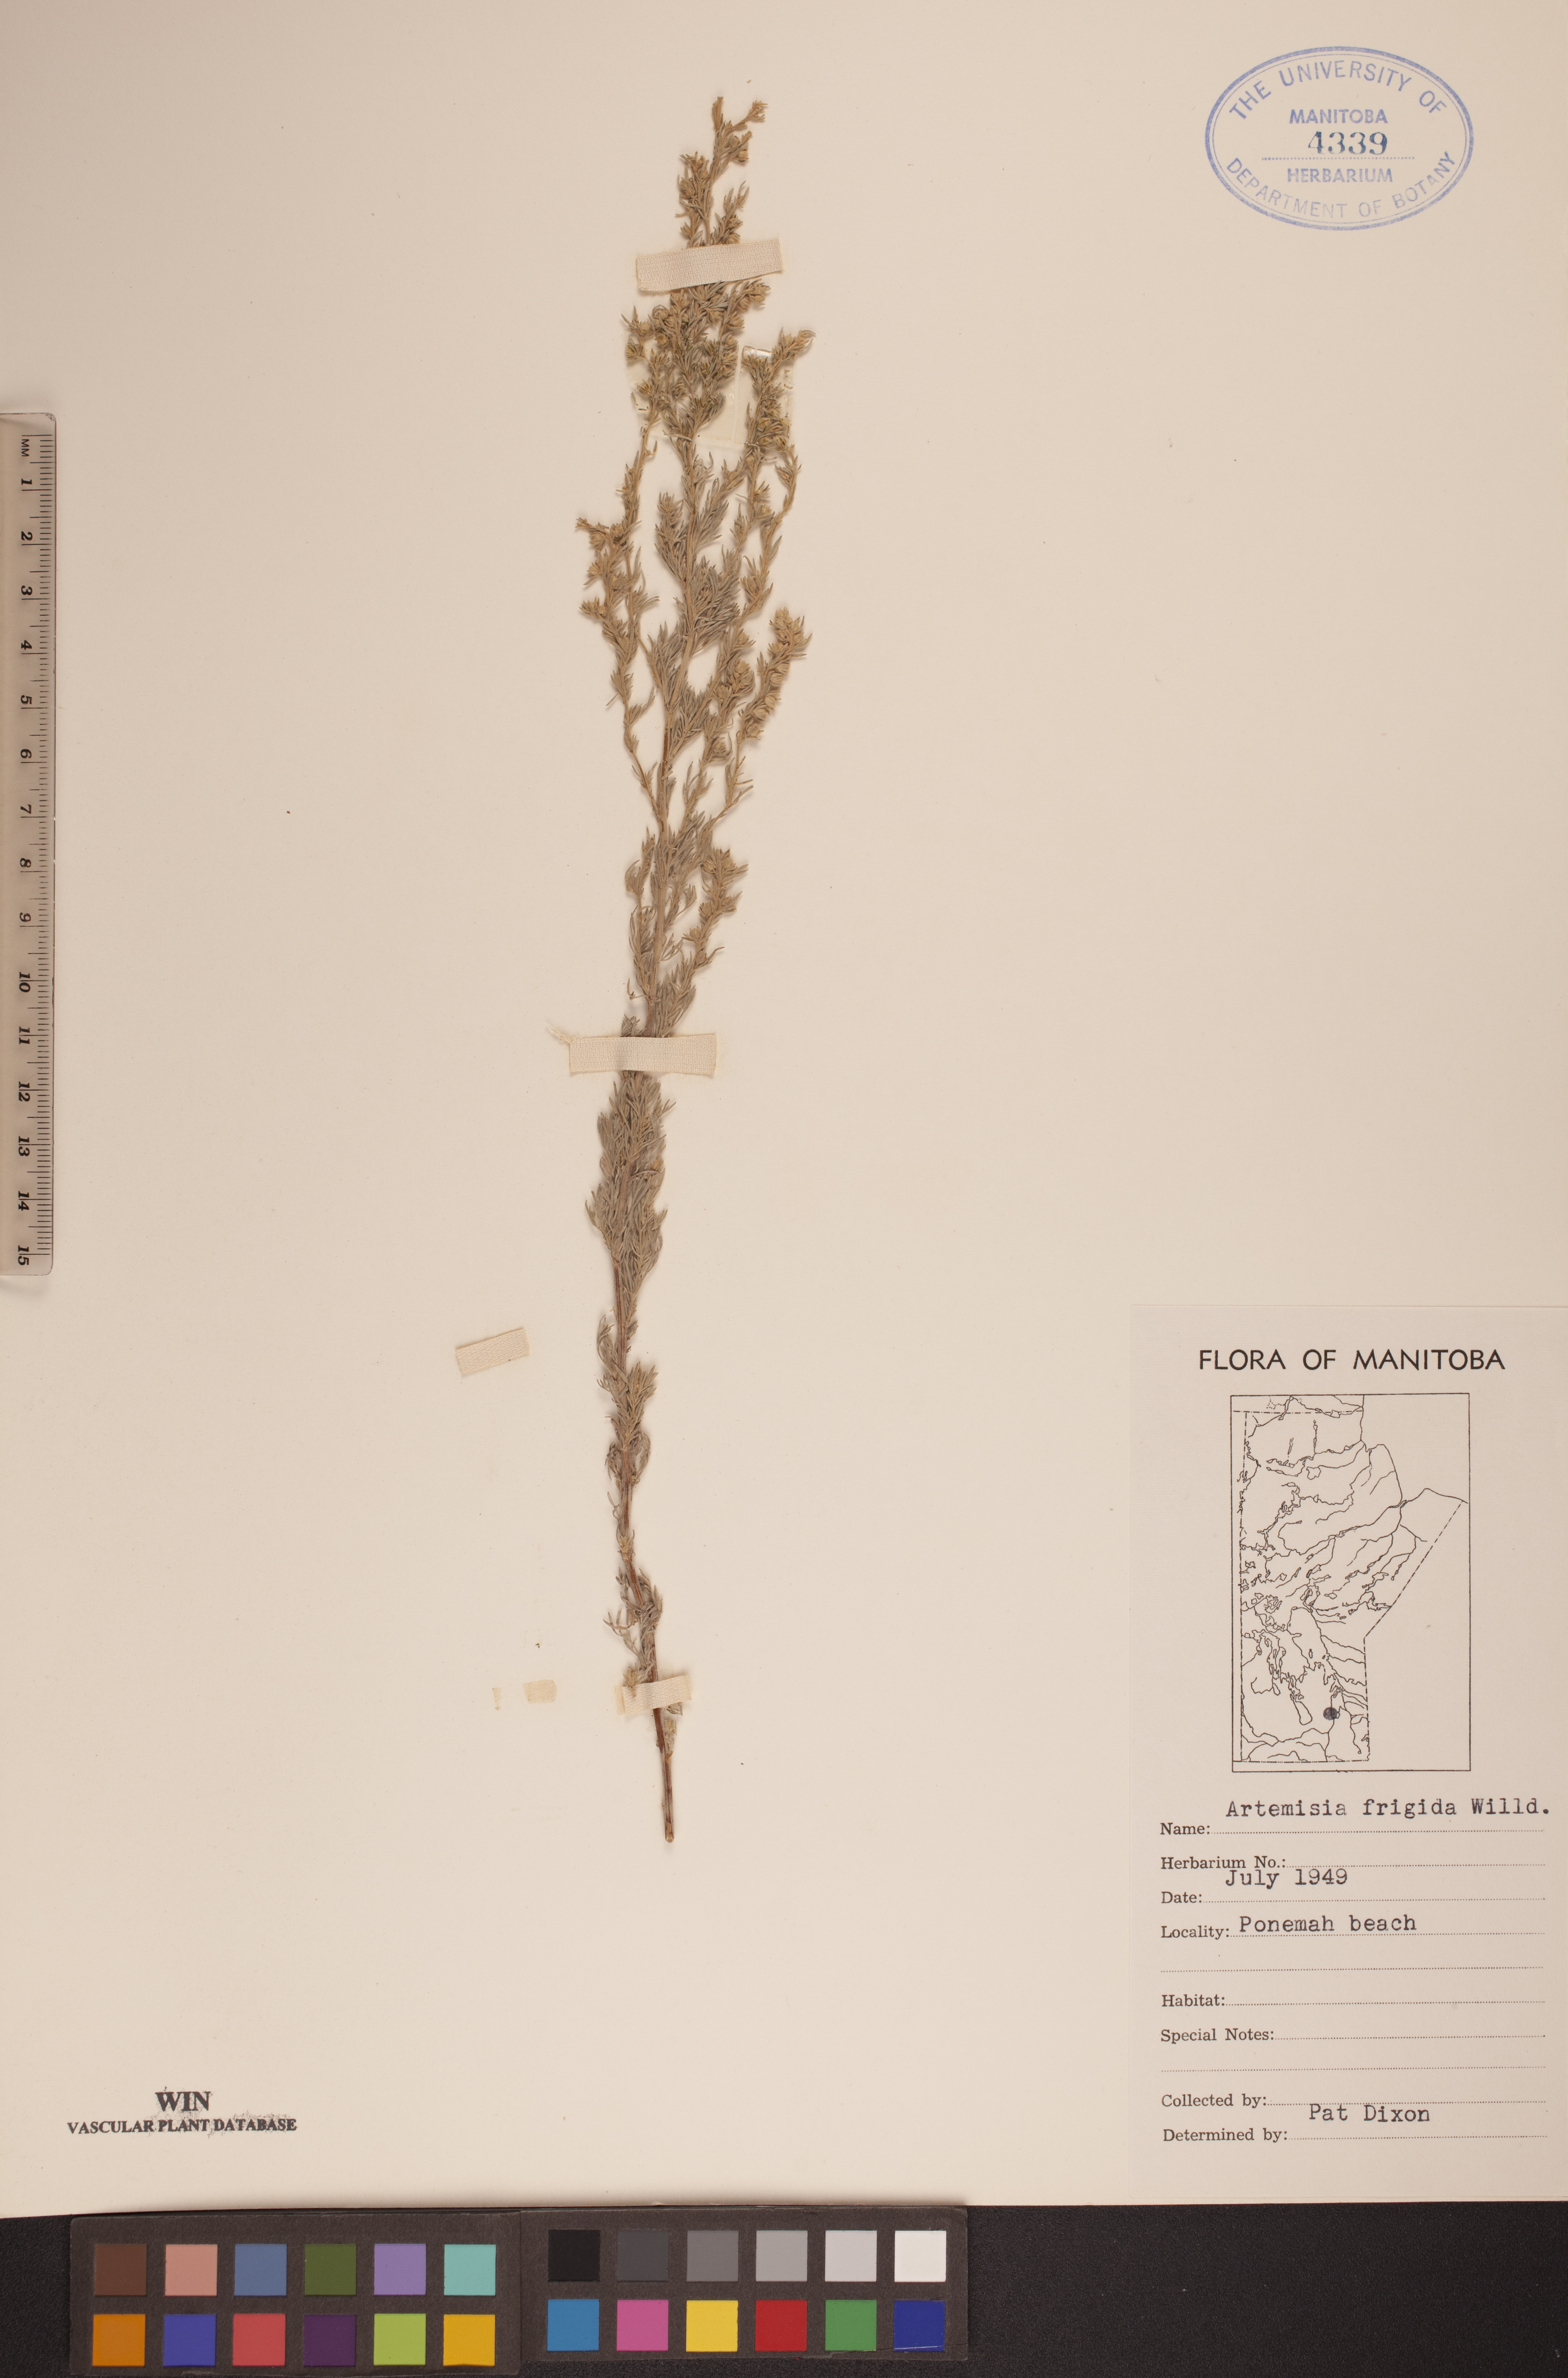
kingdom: Plantae
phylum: Tracheophyta
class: Magnoliopsida
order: Asterales
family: Asteraceae
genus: Artemisia
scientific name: Artemisia frigida
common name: Prairie sagewort
